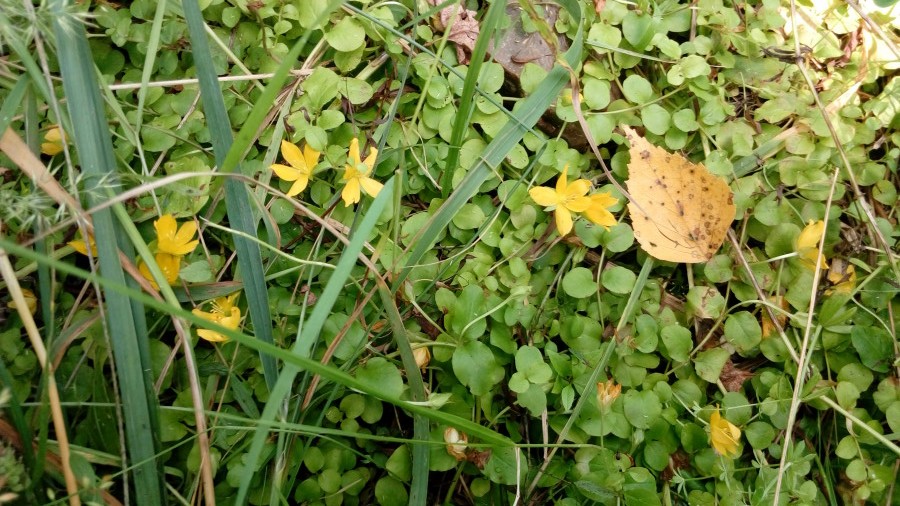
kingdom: Plantae
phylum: Tracheophyta
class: Magnoliopsida
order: Ericales
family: Primulaceae
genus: Lysimachia
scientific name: Lysimachia nummularia
